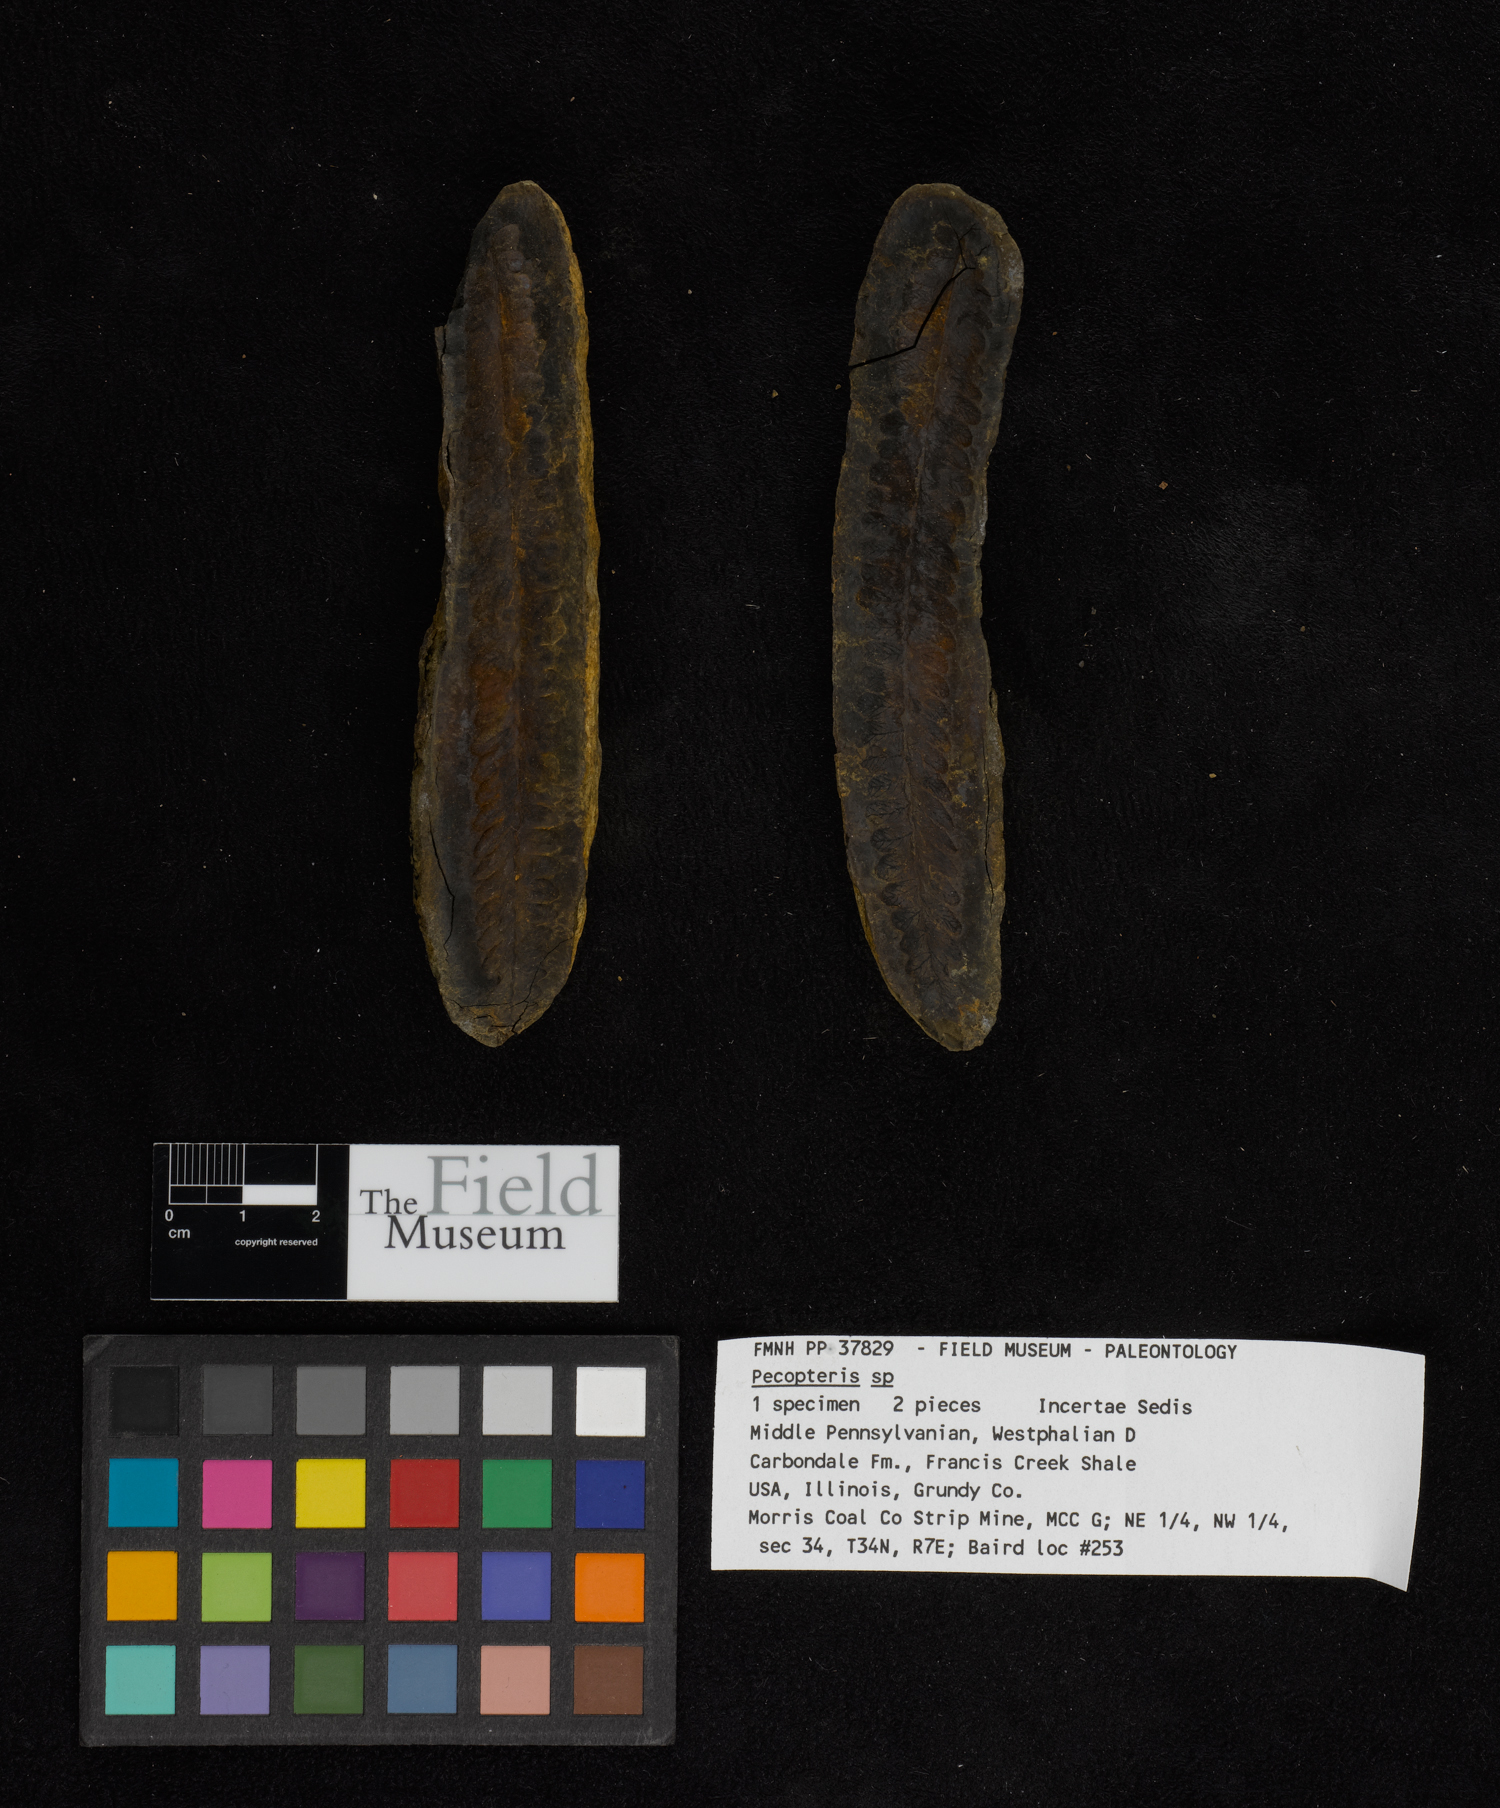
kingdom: Plantae
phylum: Tracheophyta
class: Polypodiopsida
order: Marattiales
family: Asterothecaceae
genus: Pecopteris
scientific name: Pecopteris
